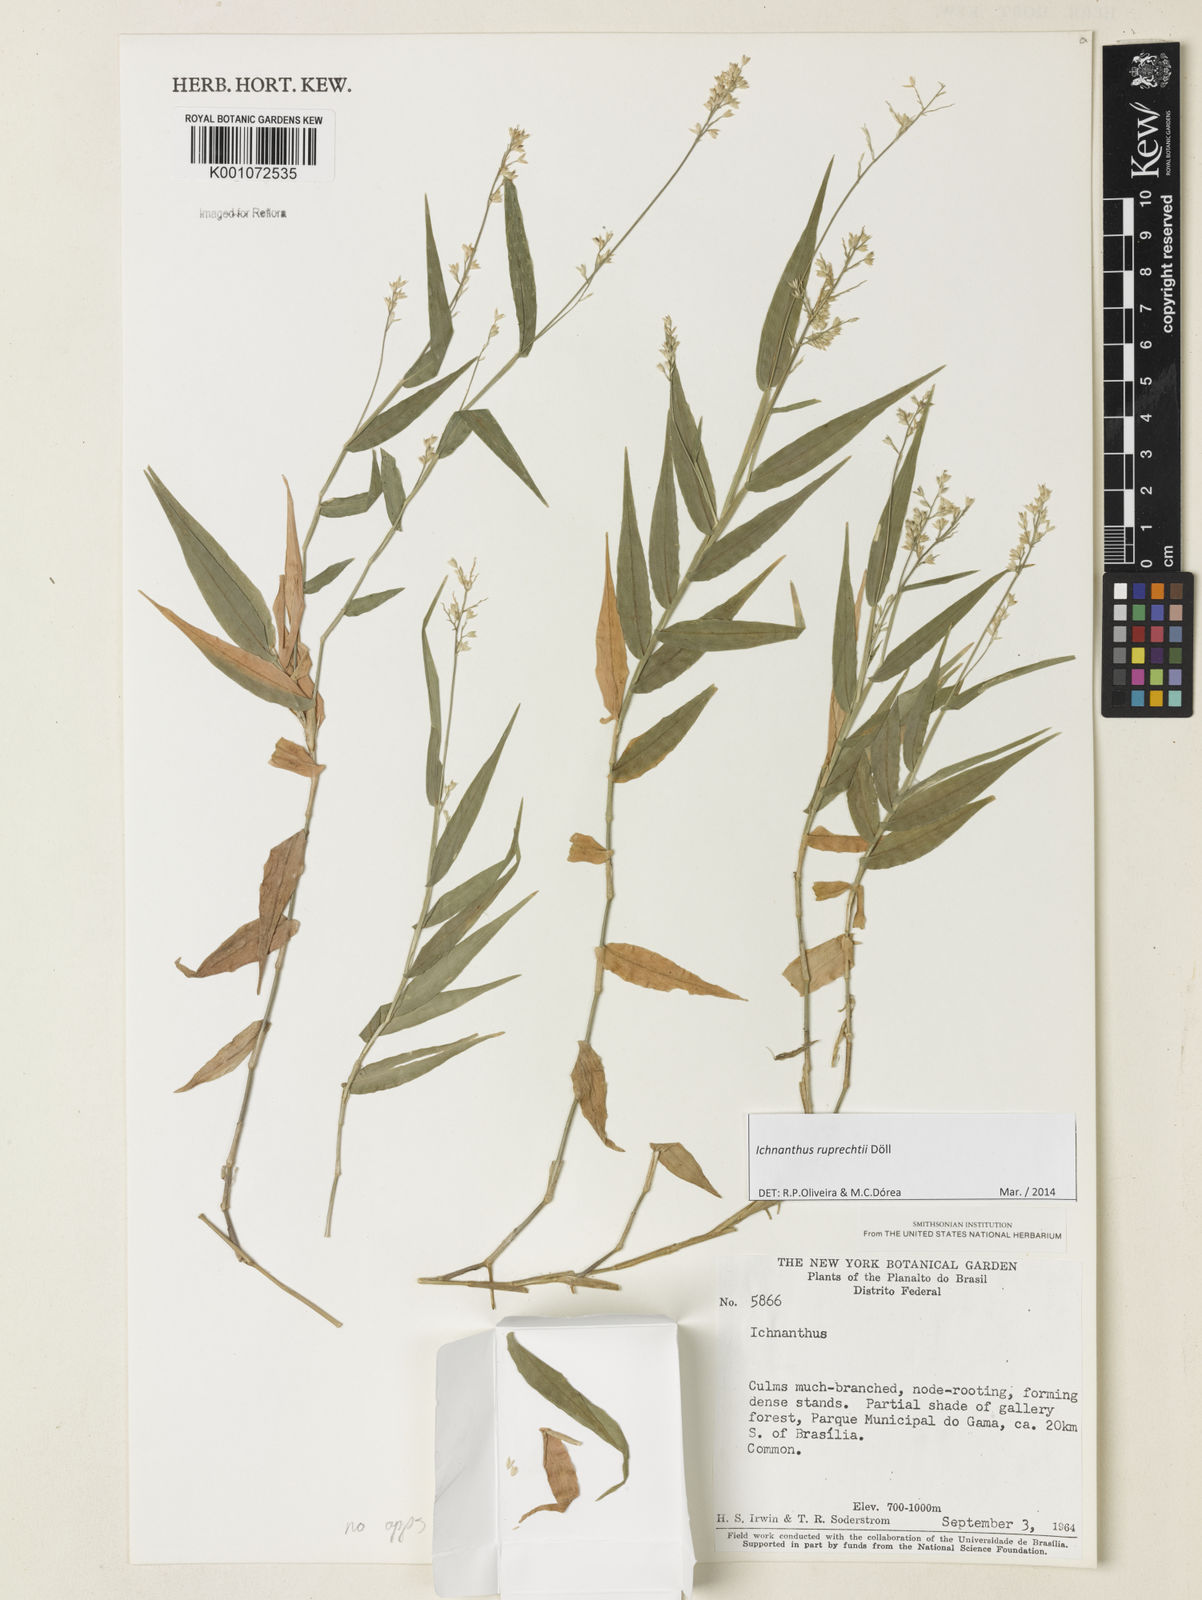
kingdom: Plantae
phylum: Tracheophyta
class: Liliopsida
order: Poales
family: Poaceae
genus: Ichnanthus
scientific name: Ichnanthus
